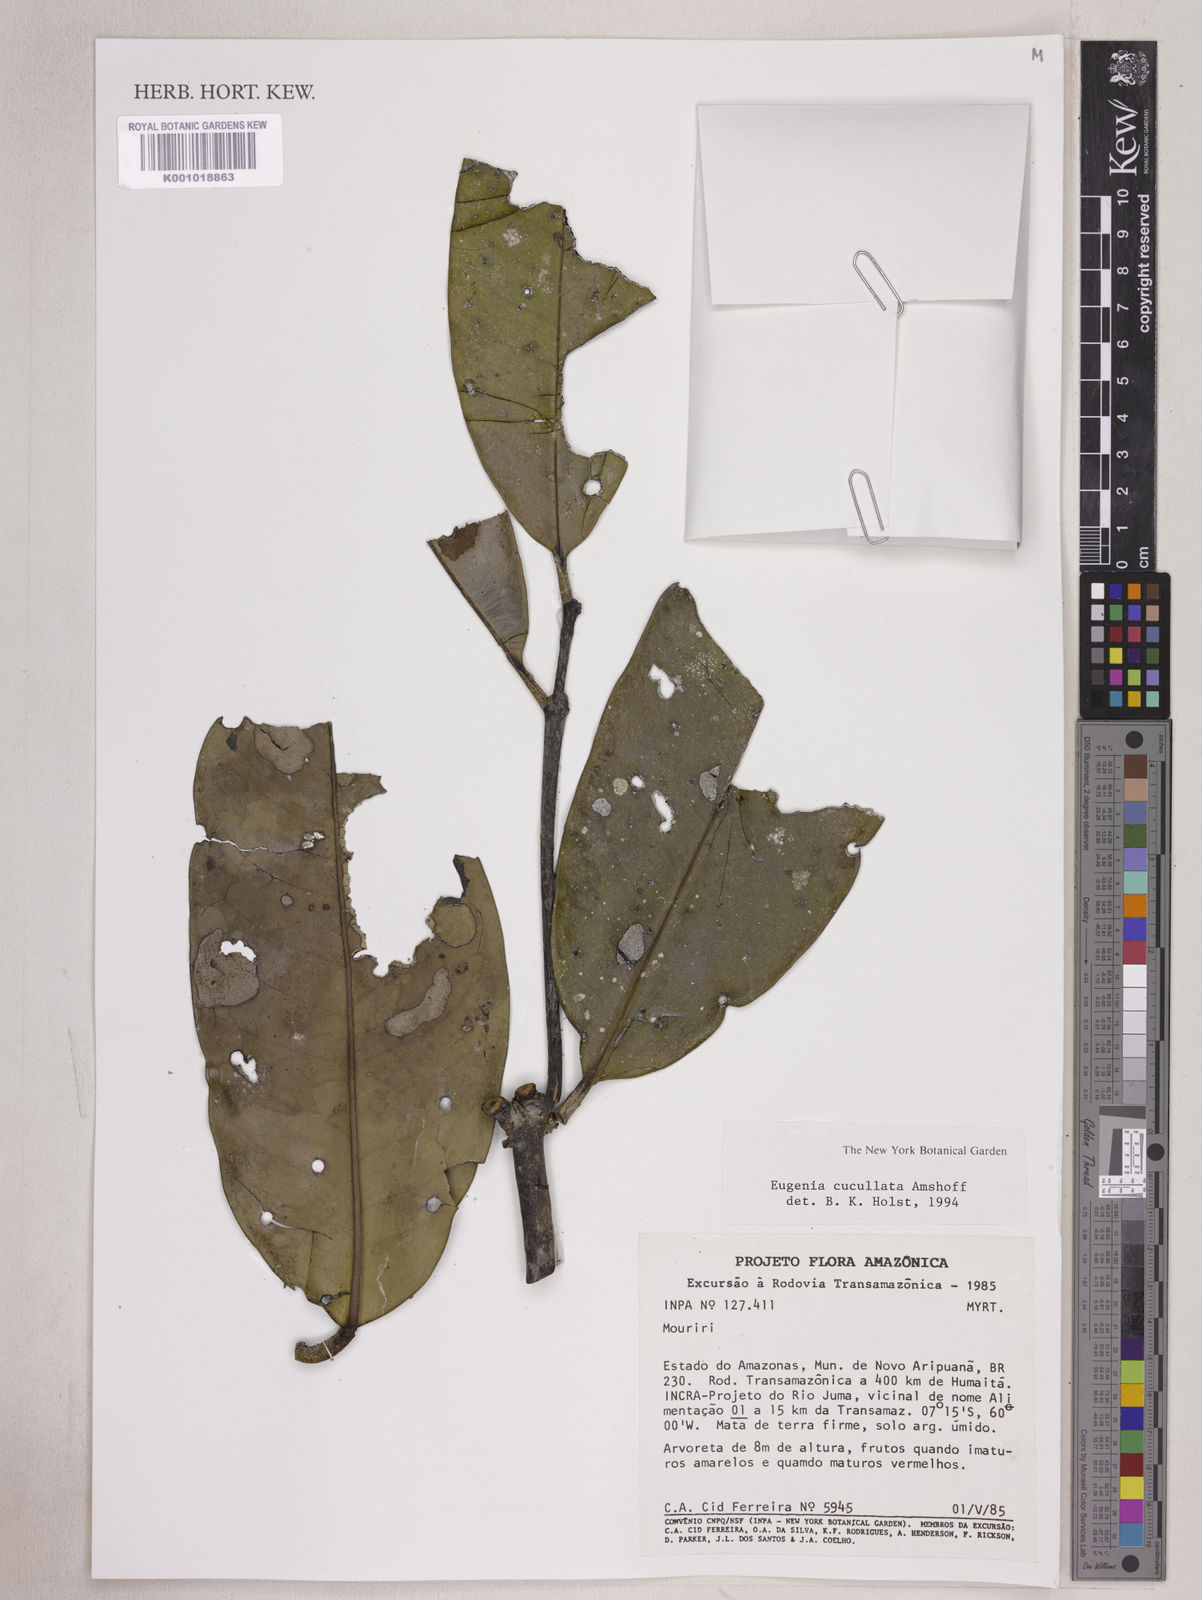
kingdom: Plantae
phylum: Tracheophyta
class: Magnoliopsida
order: Myrtales
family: Myrtaceae
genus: Eugenia
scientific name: Eugenia cucullata
